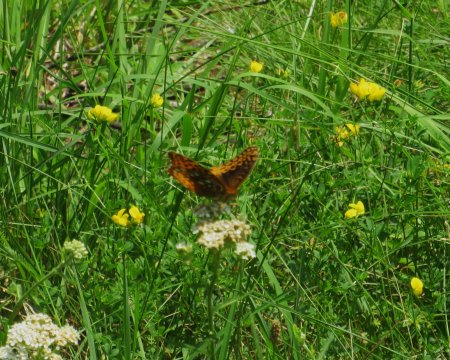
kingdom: Animalia
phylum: Arthropoda
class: Insecta
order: Lepidoptera
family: Nymphalidae
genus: Speyeria
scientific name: Speyeria cybele
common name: Great Spangled Fritillary
